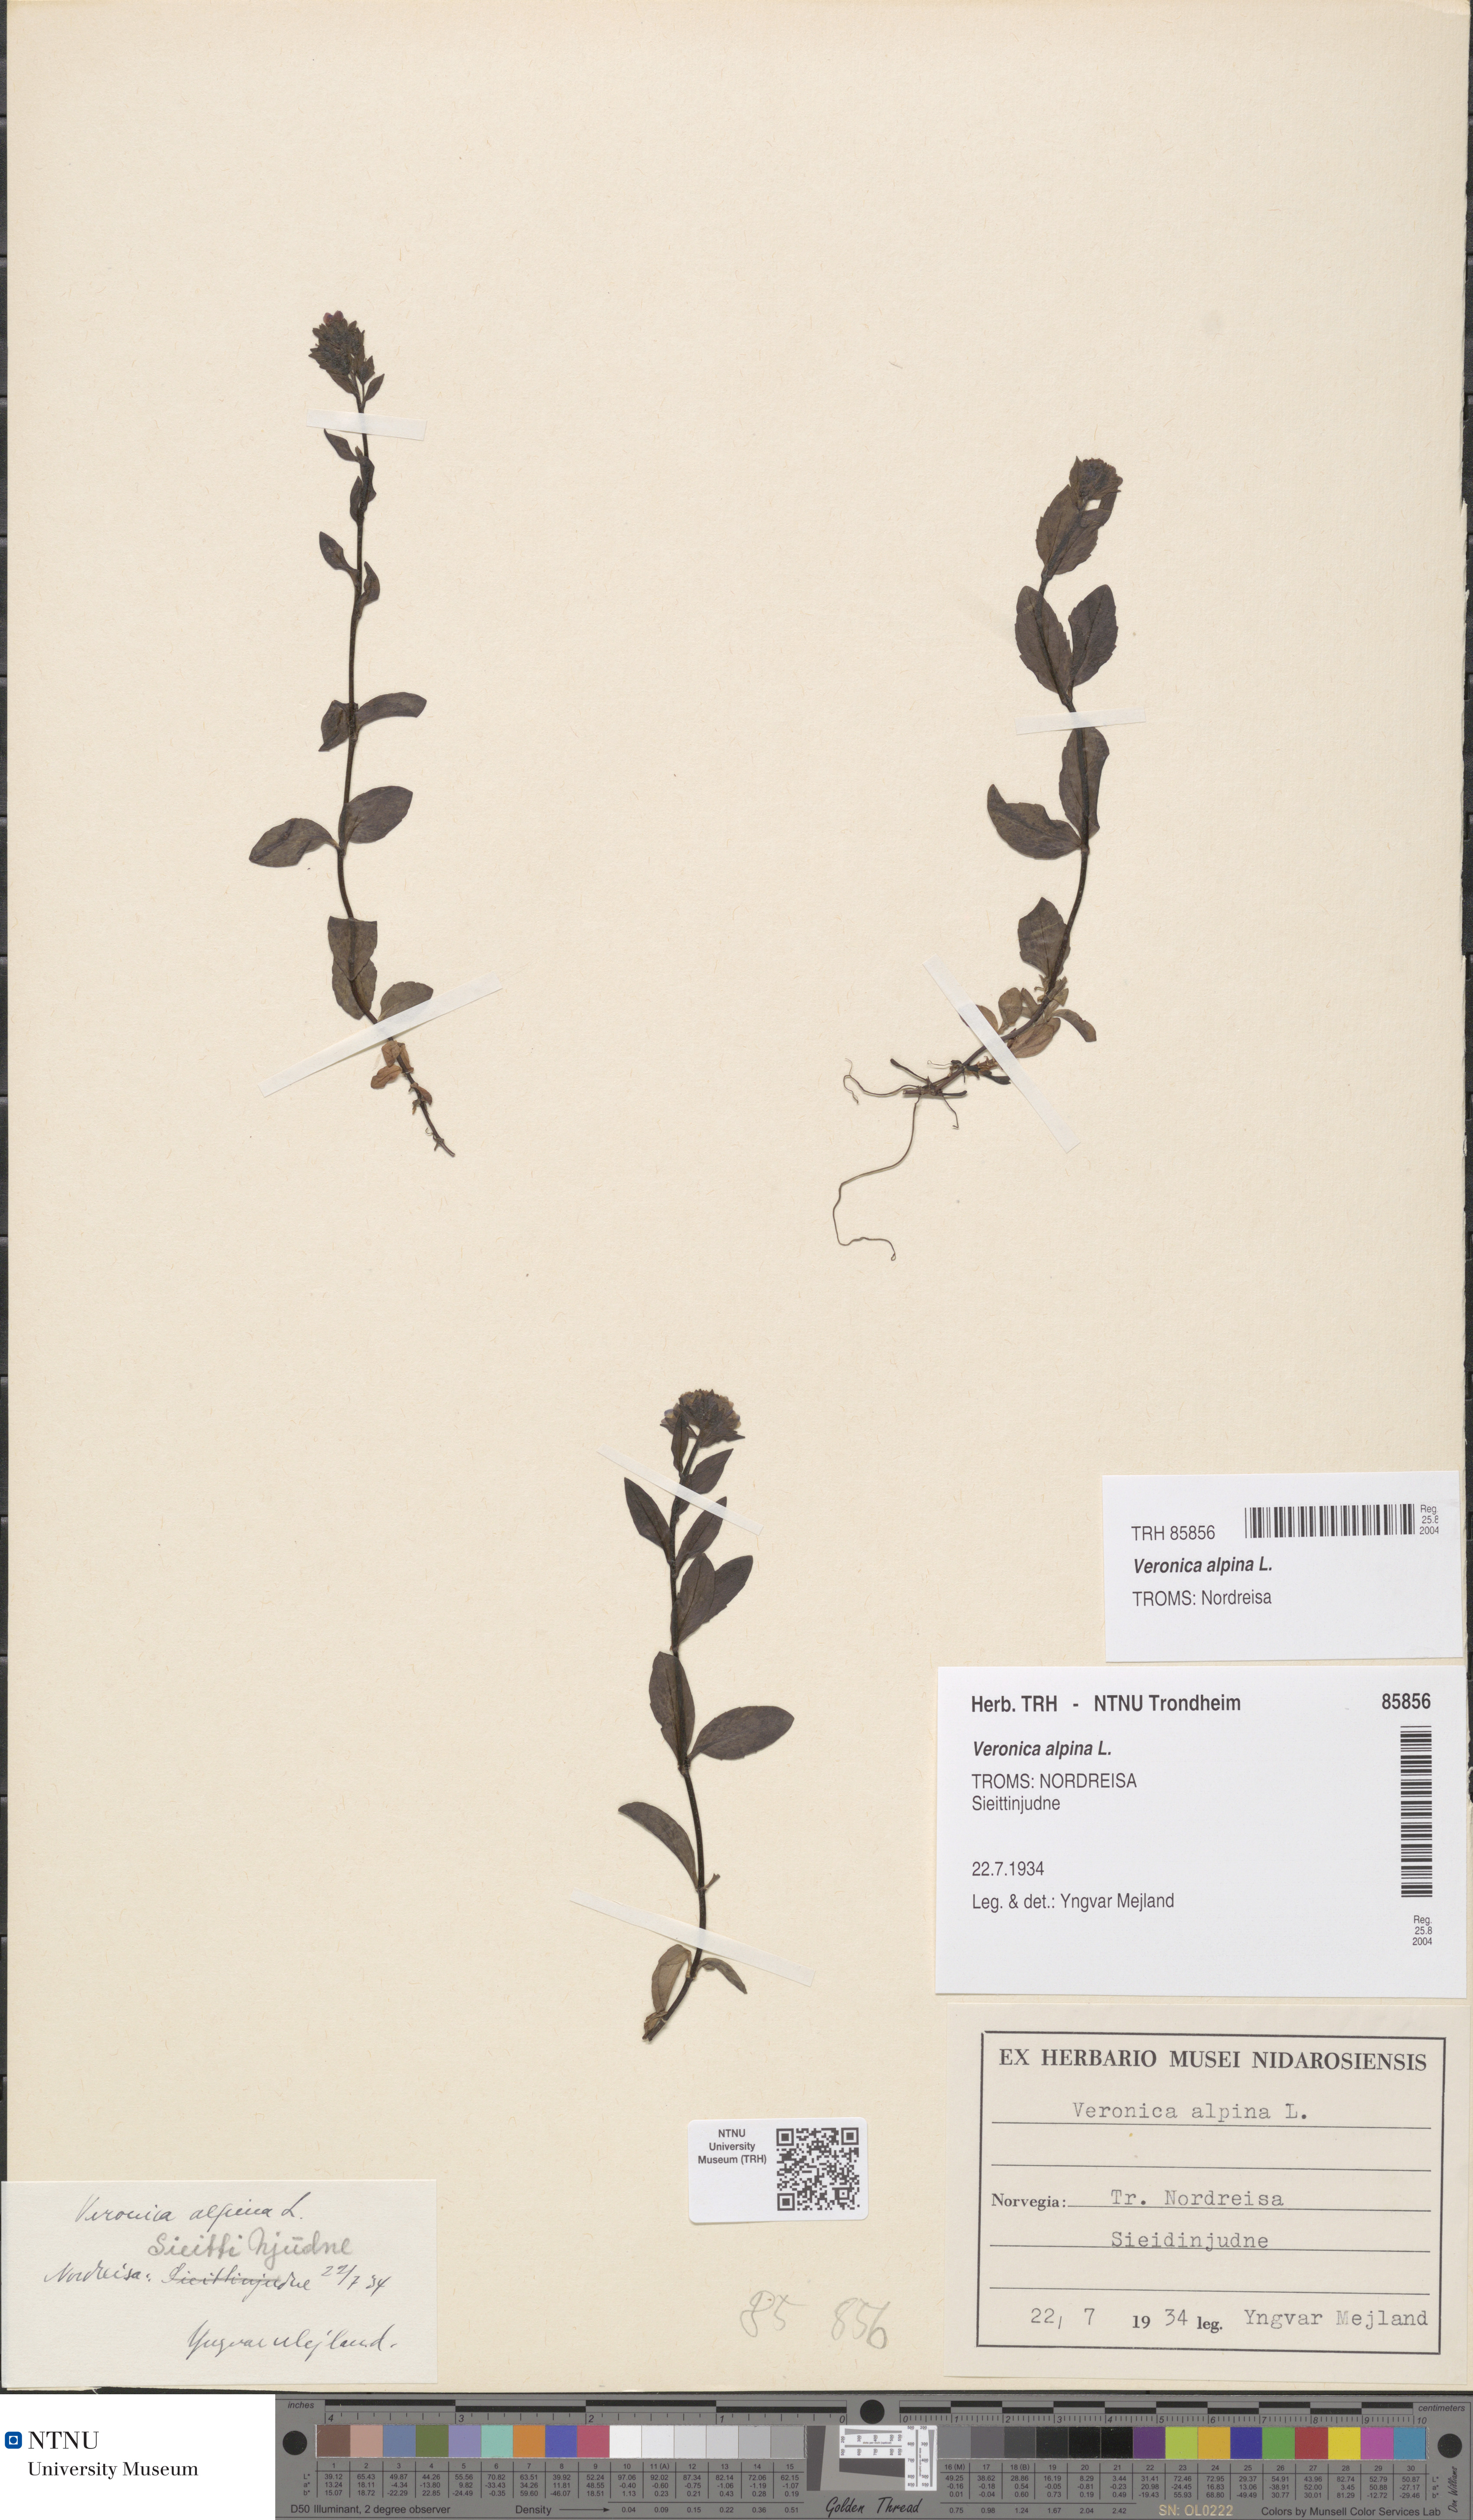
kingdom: Plantae
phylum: Tracheophyta
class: Magnoliopsida
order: Lamiales
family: Plantaginaceae
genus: Veronica
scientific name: Veronica alpina
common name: Alpine speedwell
